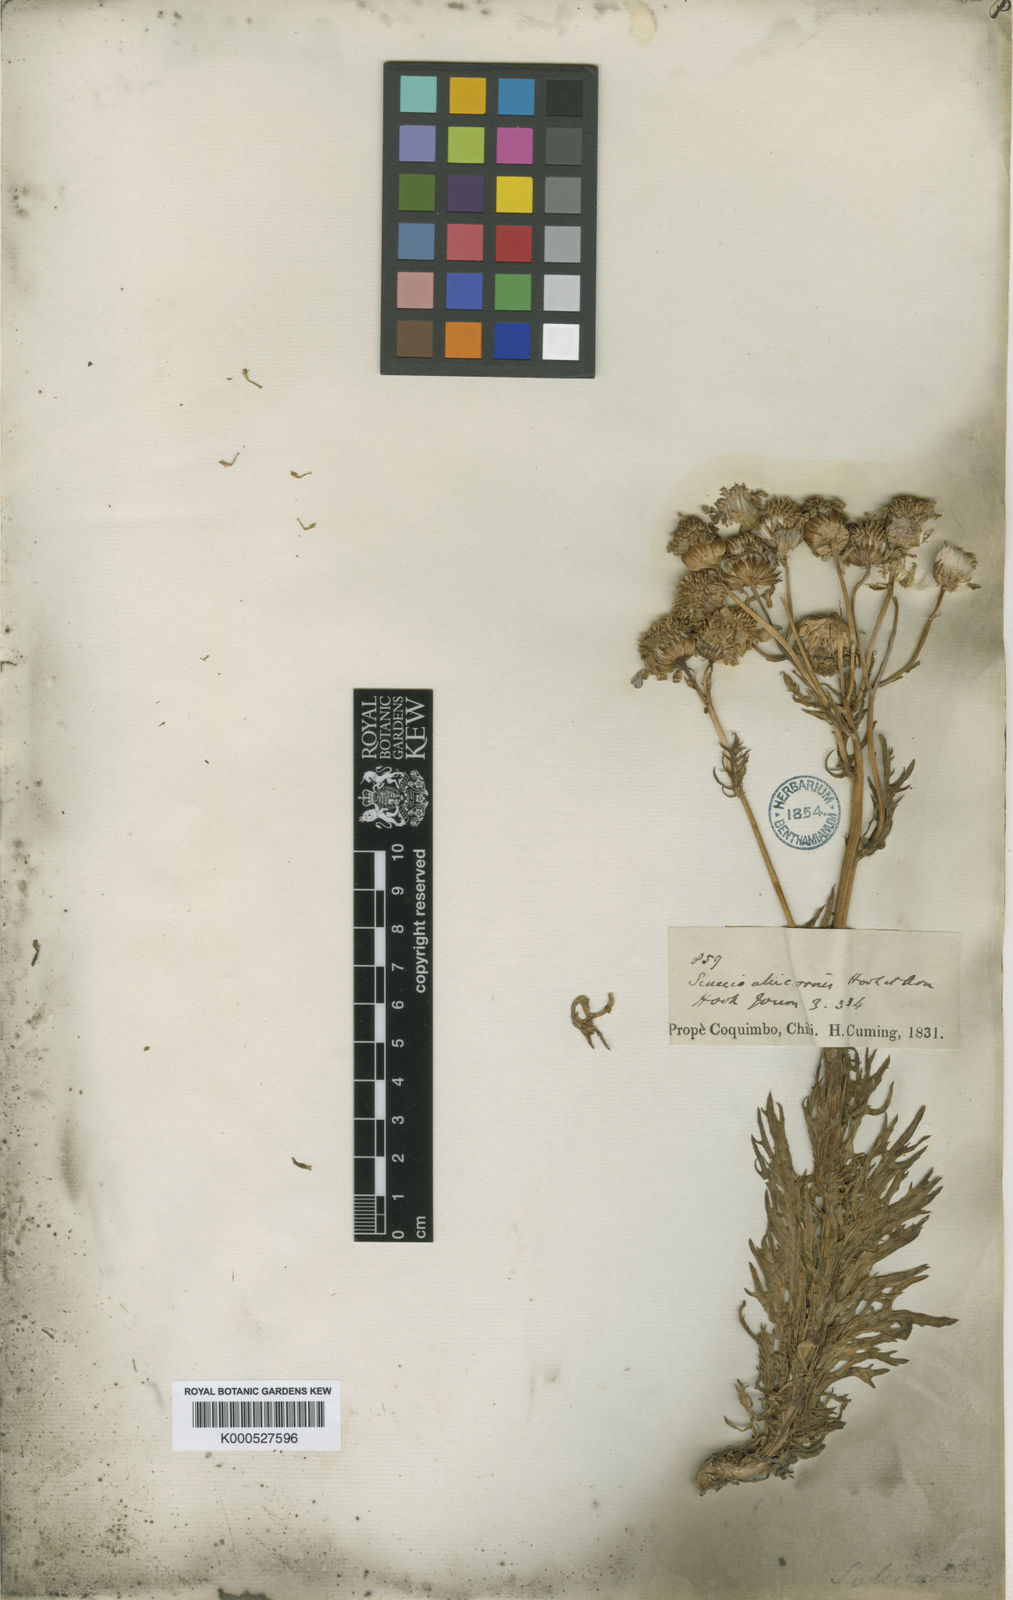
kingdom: Plantae
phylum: Tracheophyta
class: Magnoliopsida
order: Asterales
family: Asteraceae
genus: Senecio
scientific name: Senecio alcicornis
